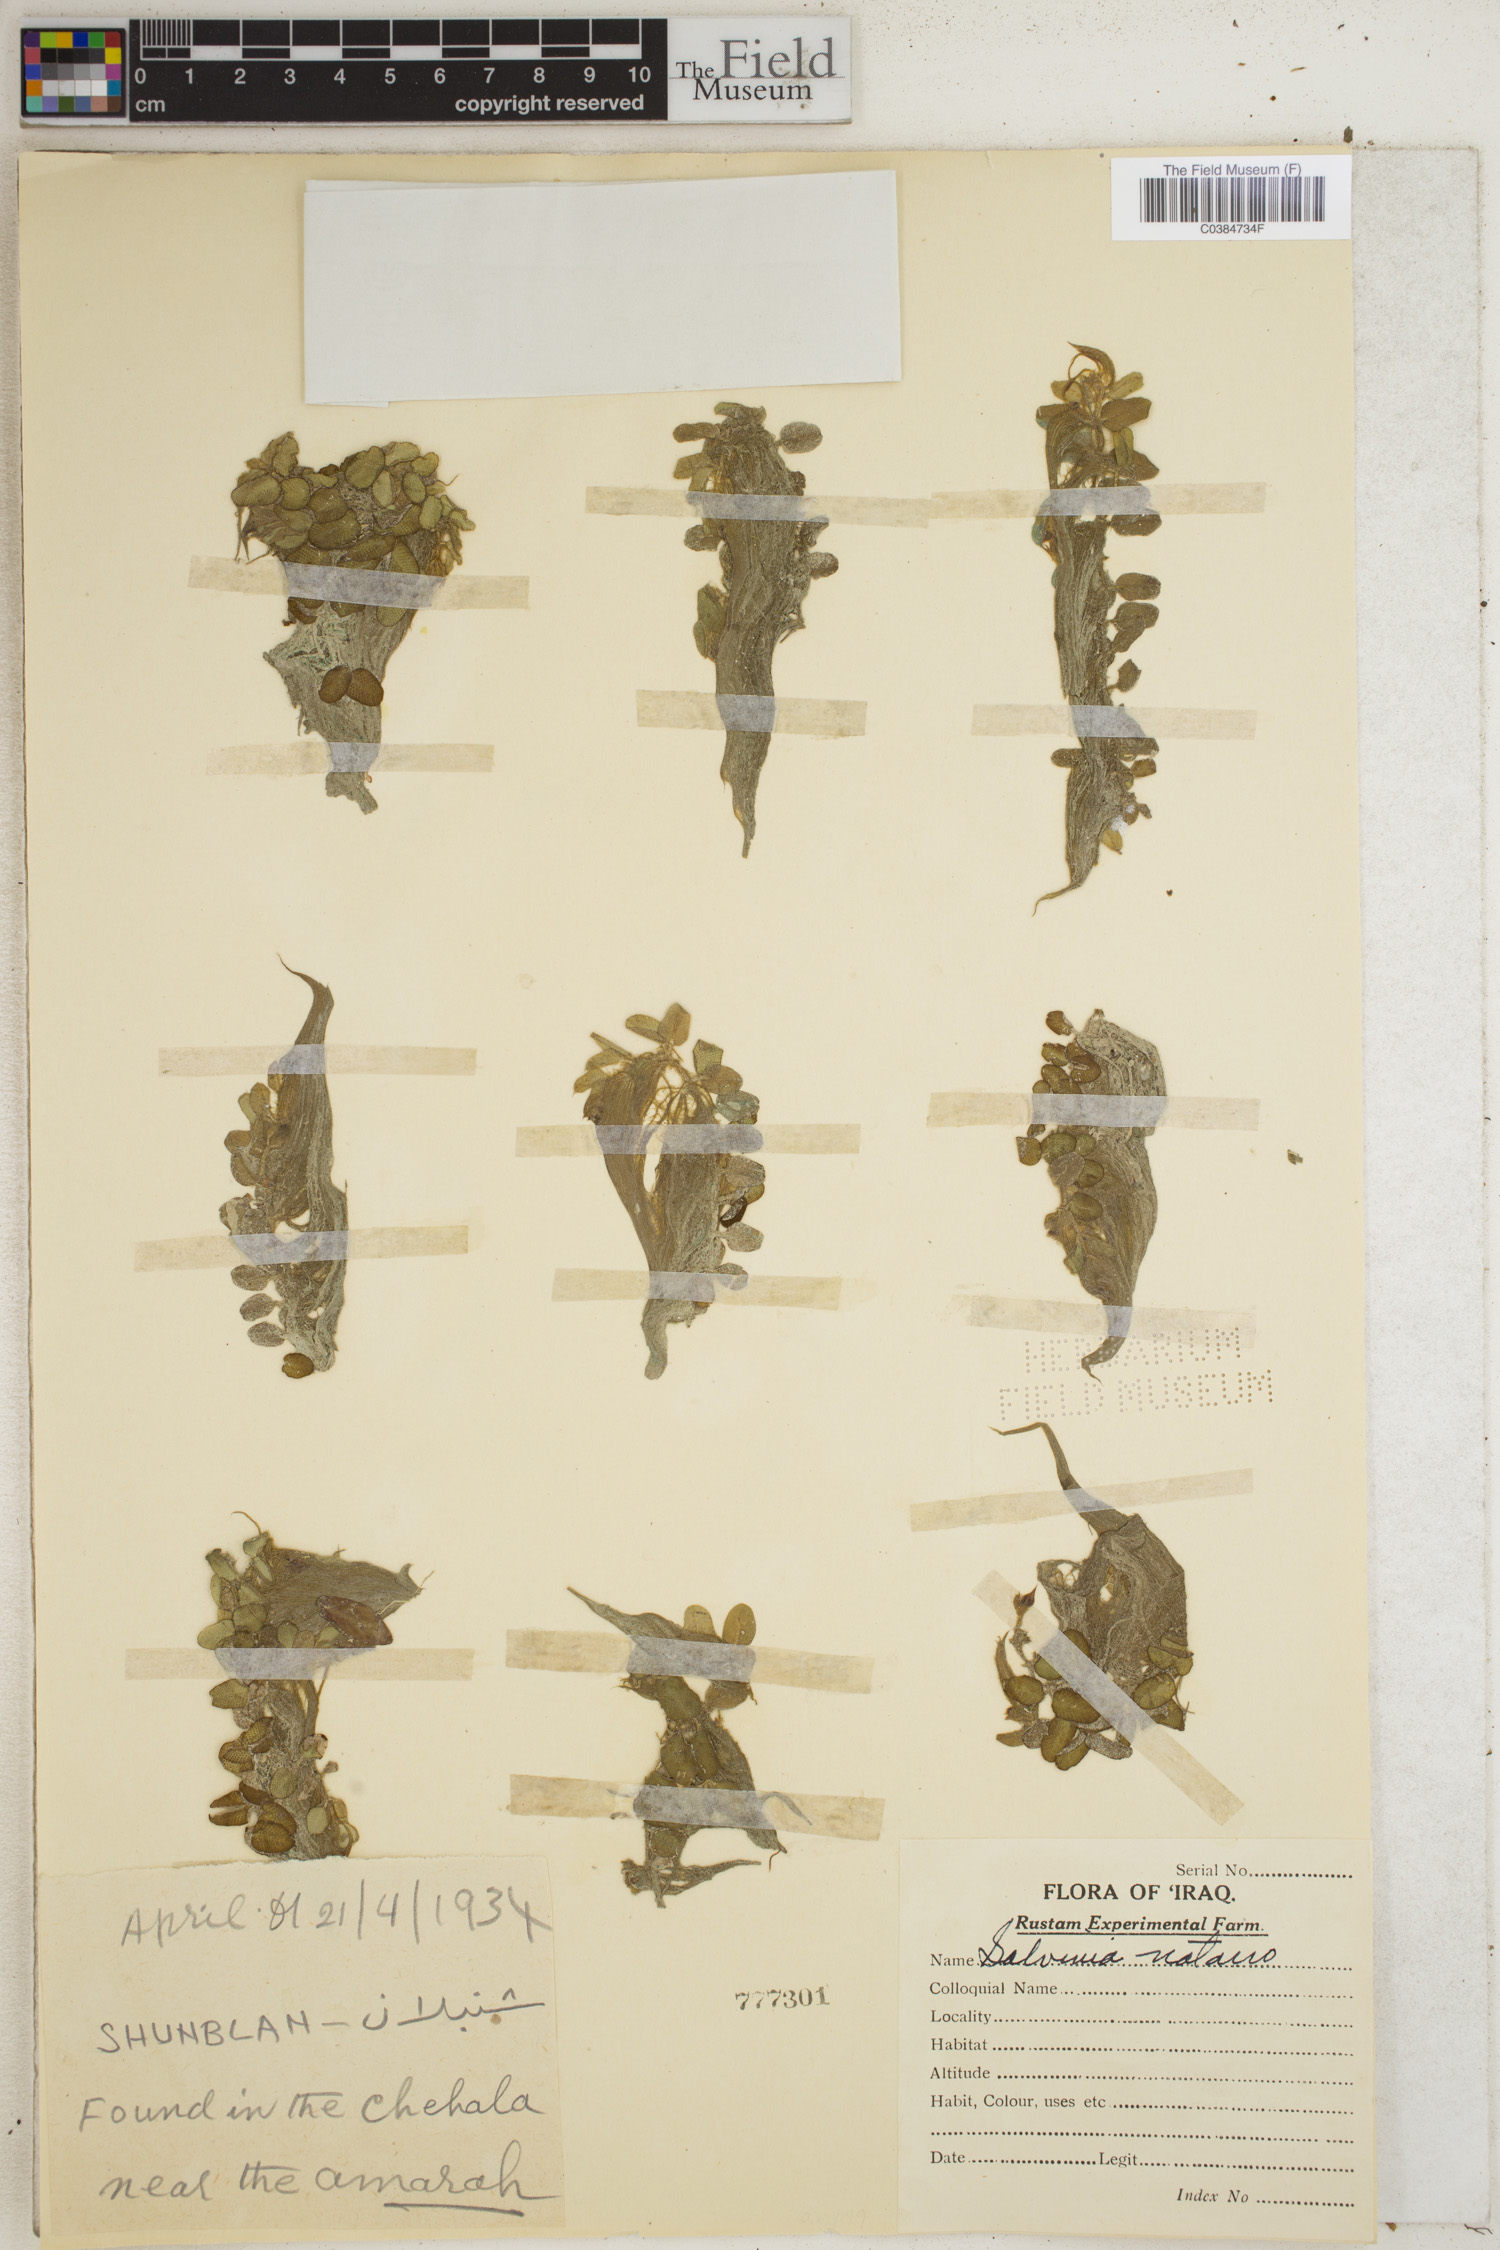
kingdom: Plantae
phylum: Tracheophyta
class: Polypodiopsida
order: Salviniales
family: Salviniaceae
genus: Salvinia
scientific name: Salvinia natans
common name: Floating fern
